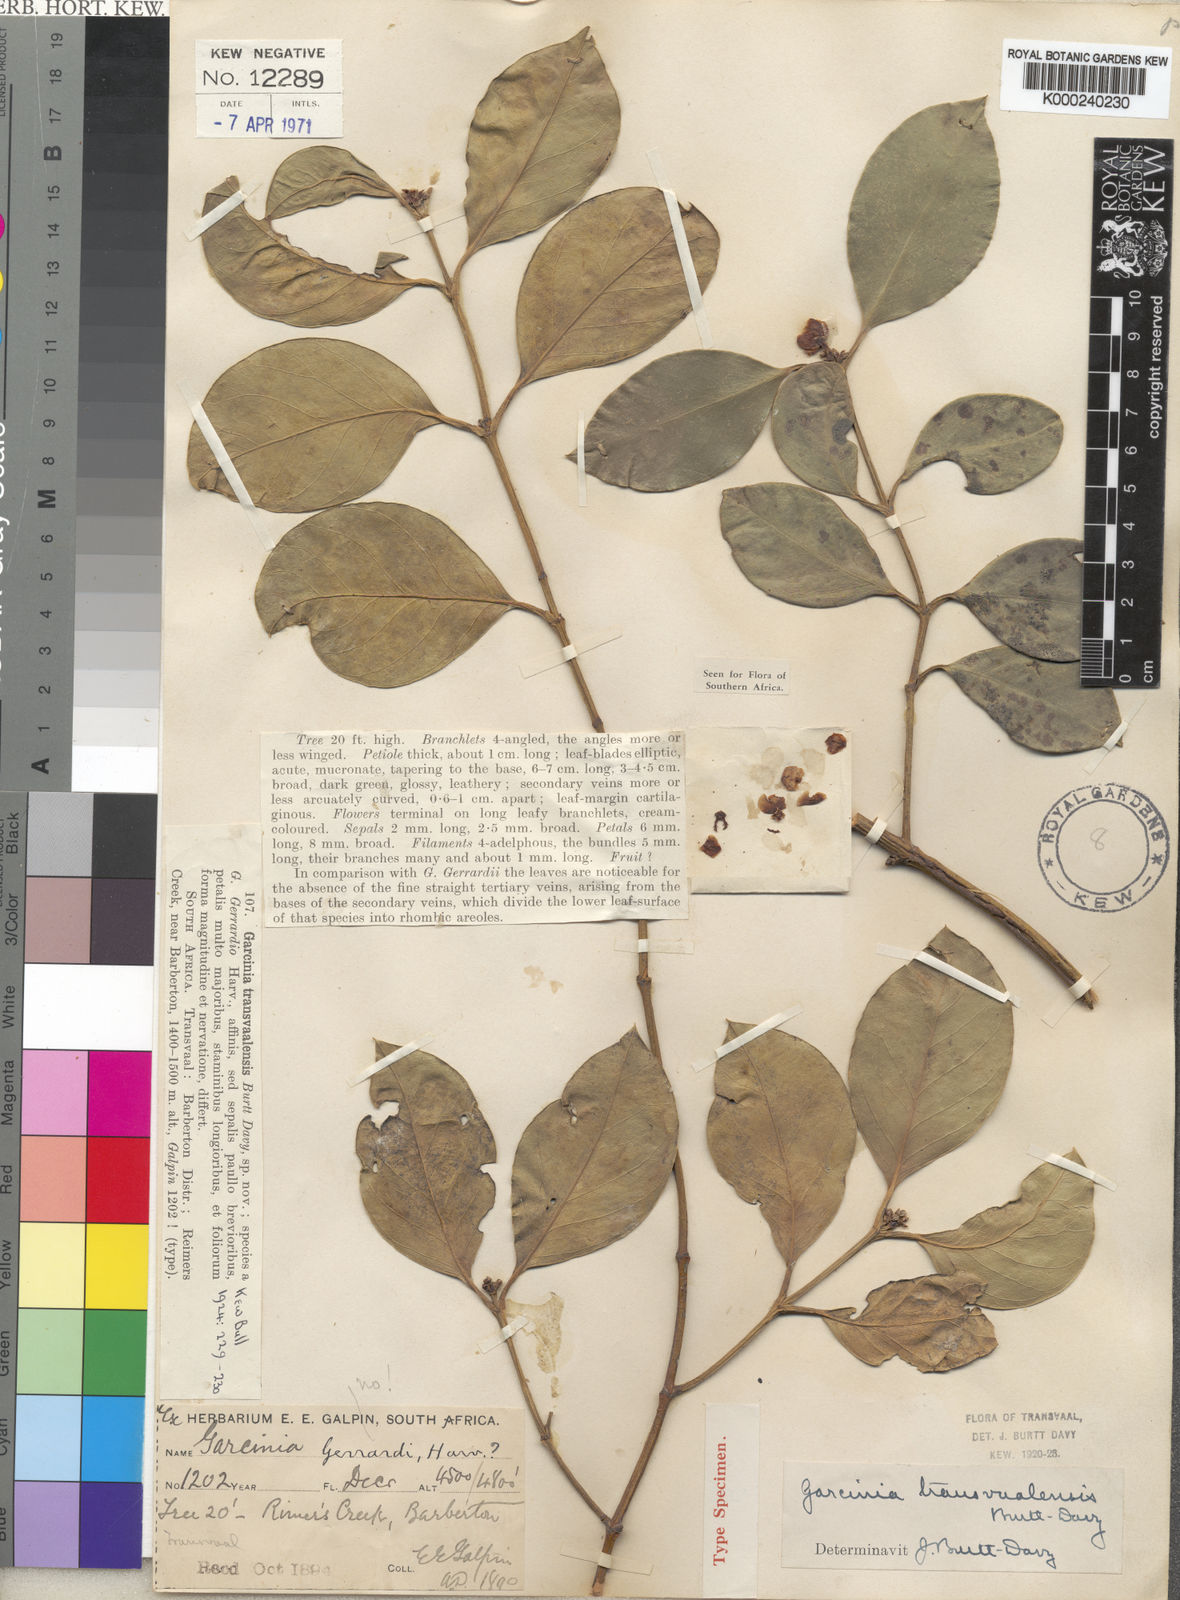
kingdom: Plantae
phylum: Tracheophyta
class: Magnoliopsida
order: Malpighiales
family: Clusiaceae
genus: Garcinia
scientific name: Garcinia gerrardii
